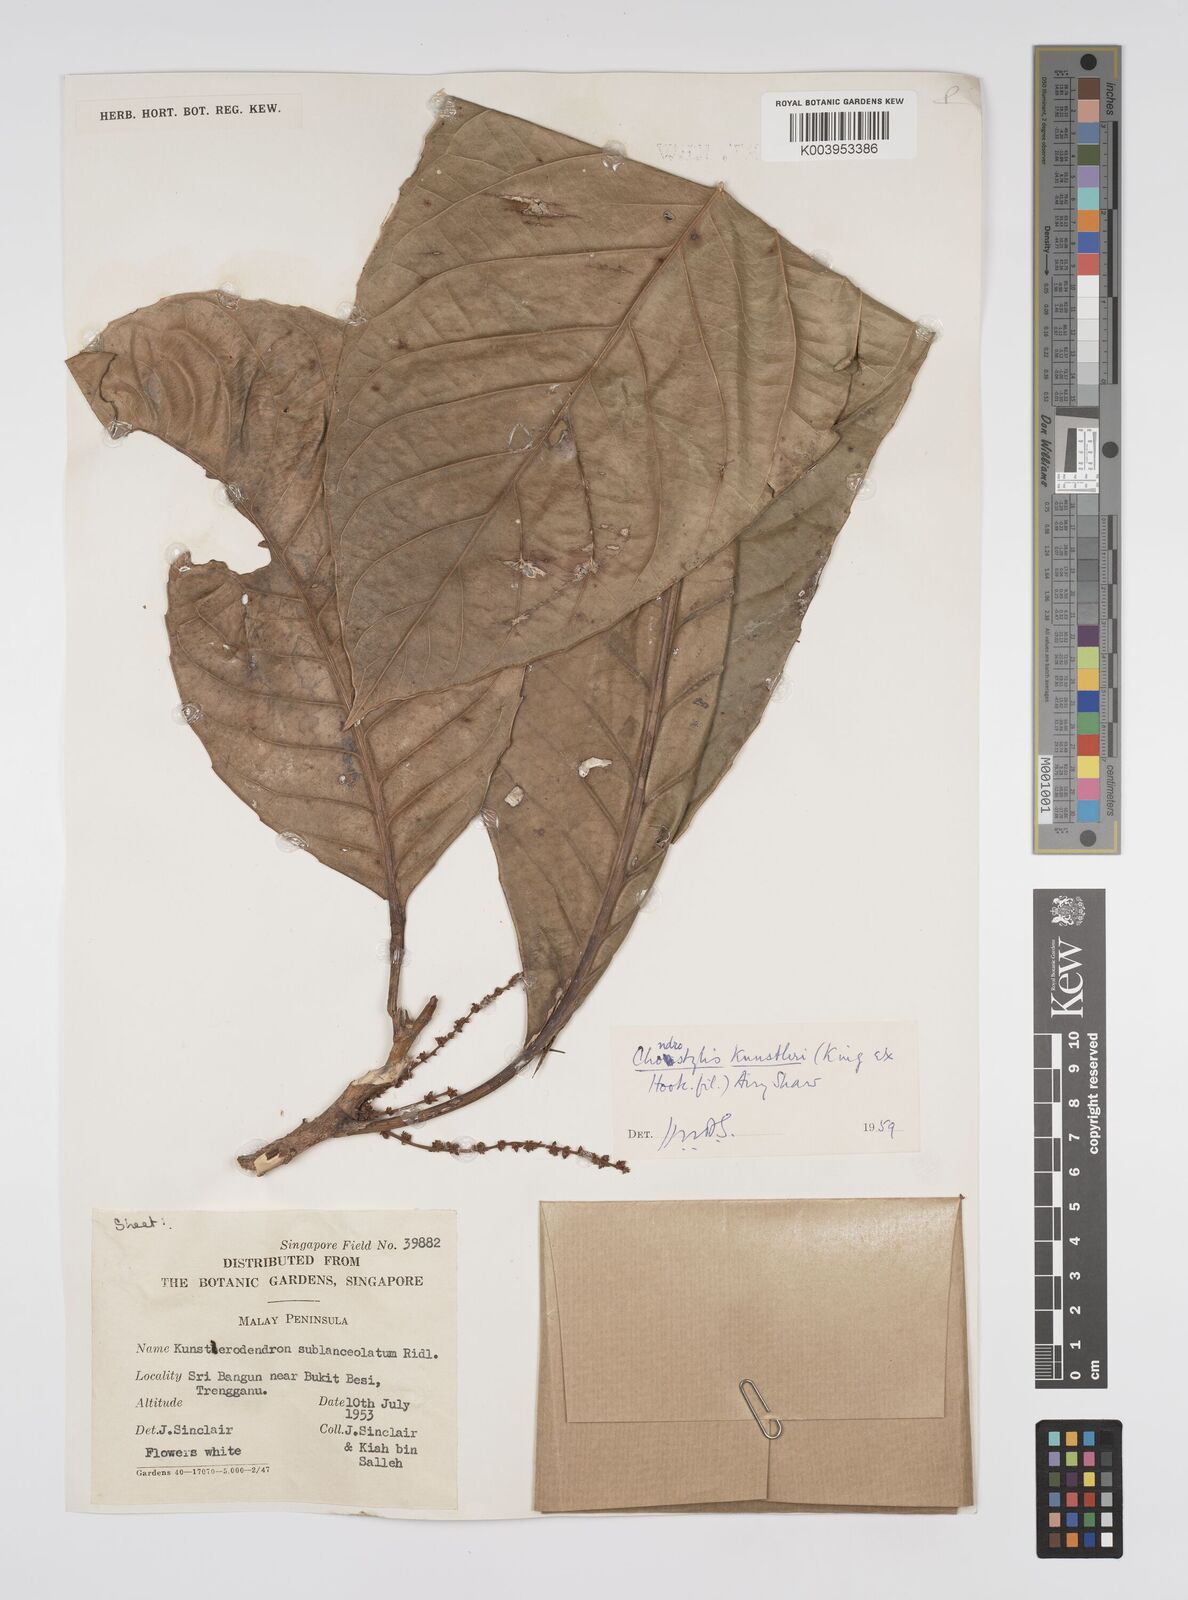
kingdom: Plantae
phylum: Tracheophyta
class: Magnoliopsida
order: Malpighiales
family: Euphorbiaceae
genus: Chondrostylis
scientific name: Chondrostylis kunstleri
